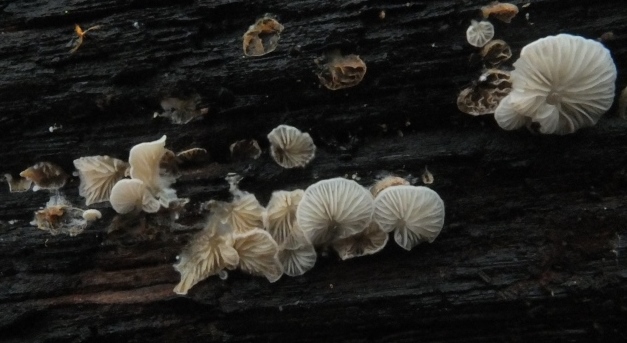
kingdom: Fungi
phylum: Basidiomycota
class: Agaricomycetes
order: Agaricales
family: Entolomataceae
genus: Clitopilus
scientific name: Clitopilus hobsonii
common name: Miller's oysterling
